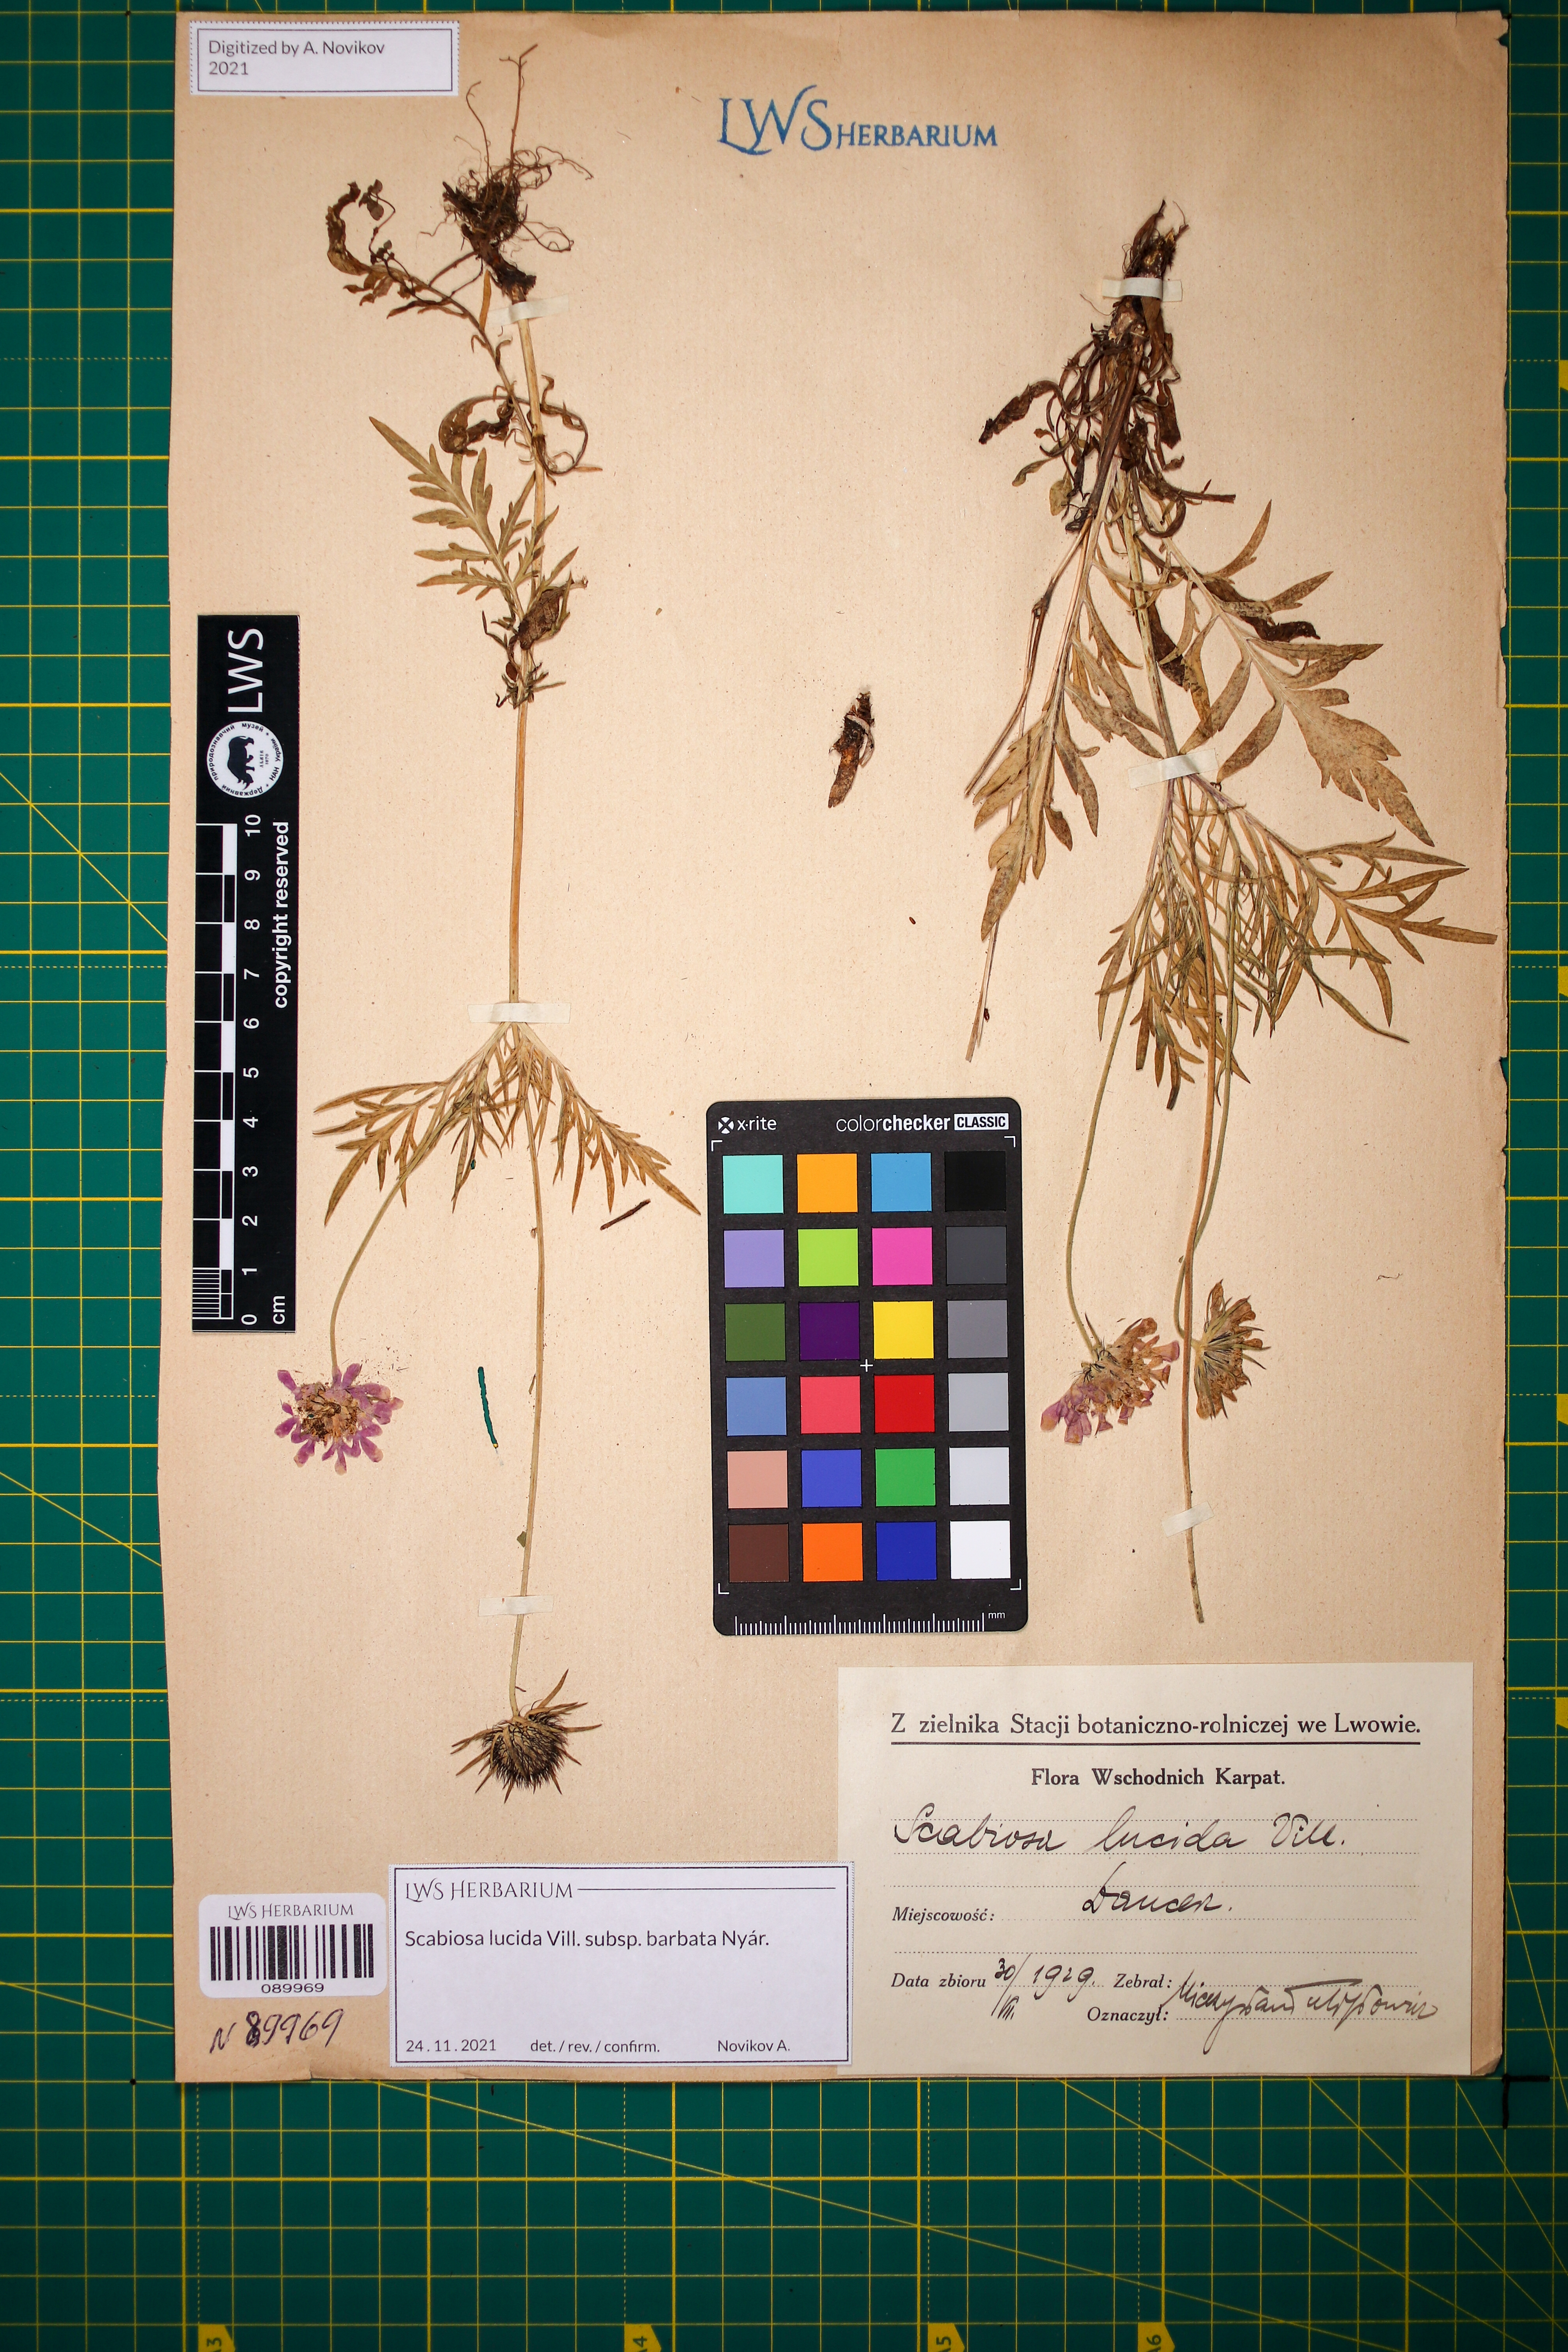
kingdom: Plantae
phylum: Tracheophyta
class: Magnoliopsida
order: Dipsacales
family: Caprifoliaceae
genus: Scabiosa
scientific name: Scabiosa lucida
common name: Shining scabious
